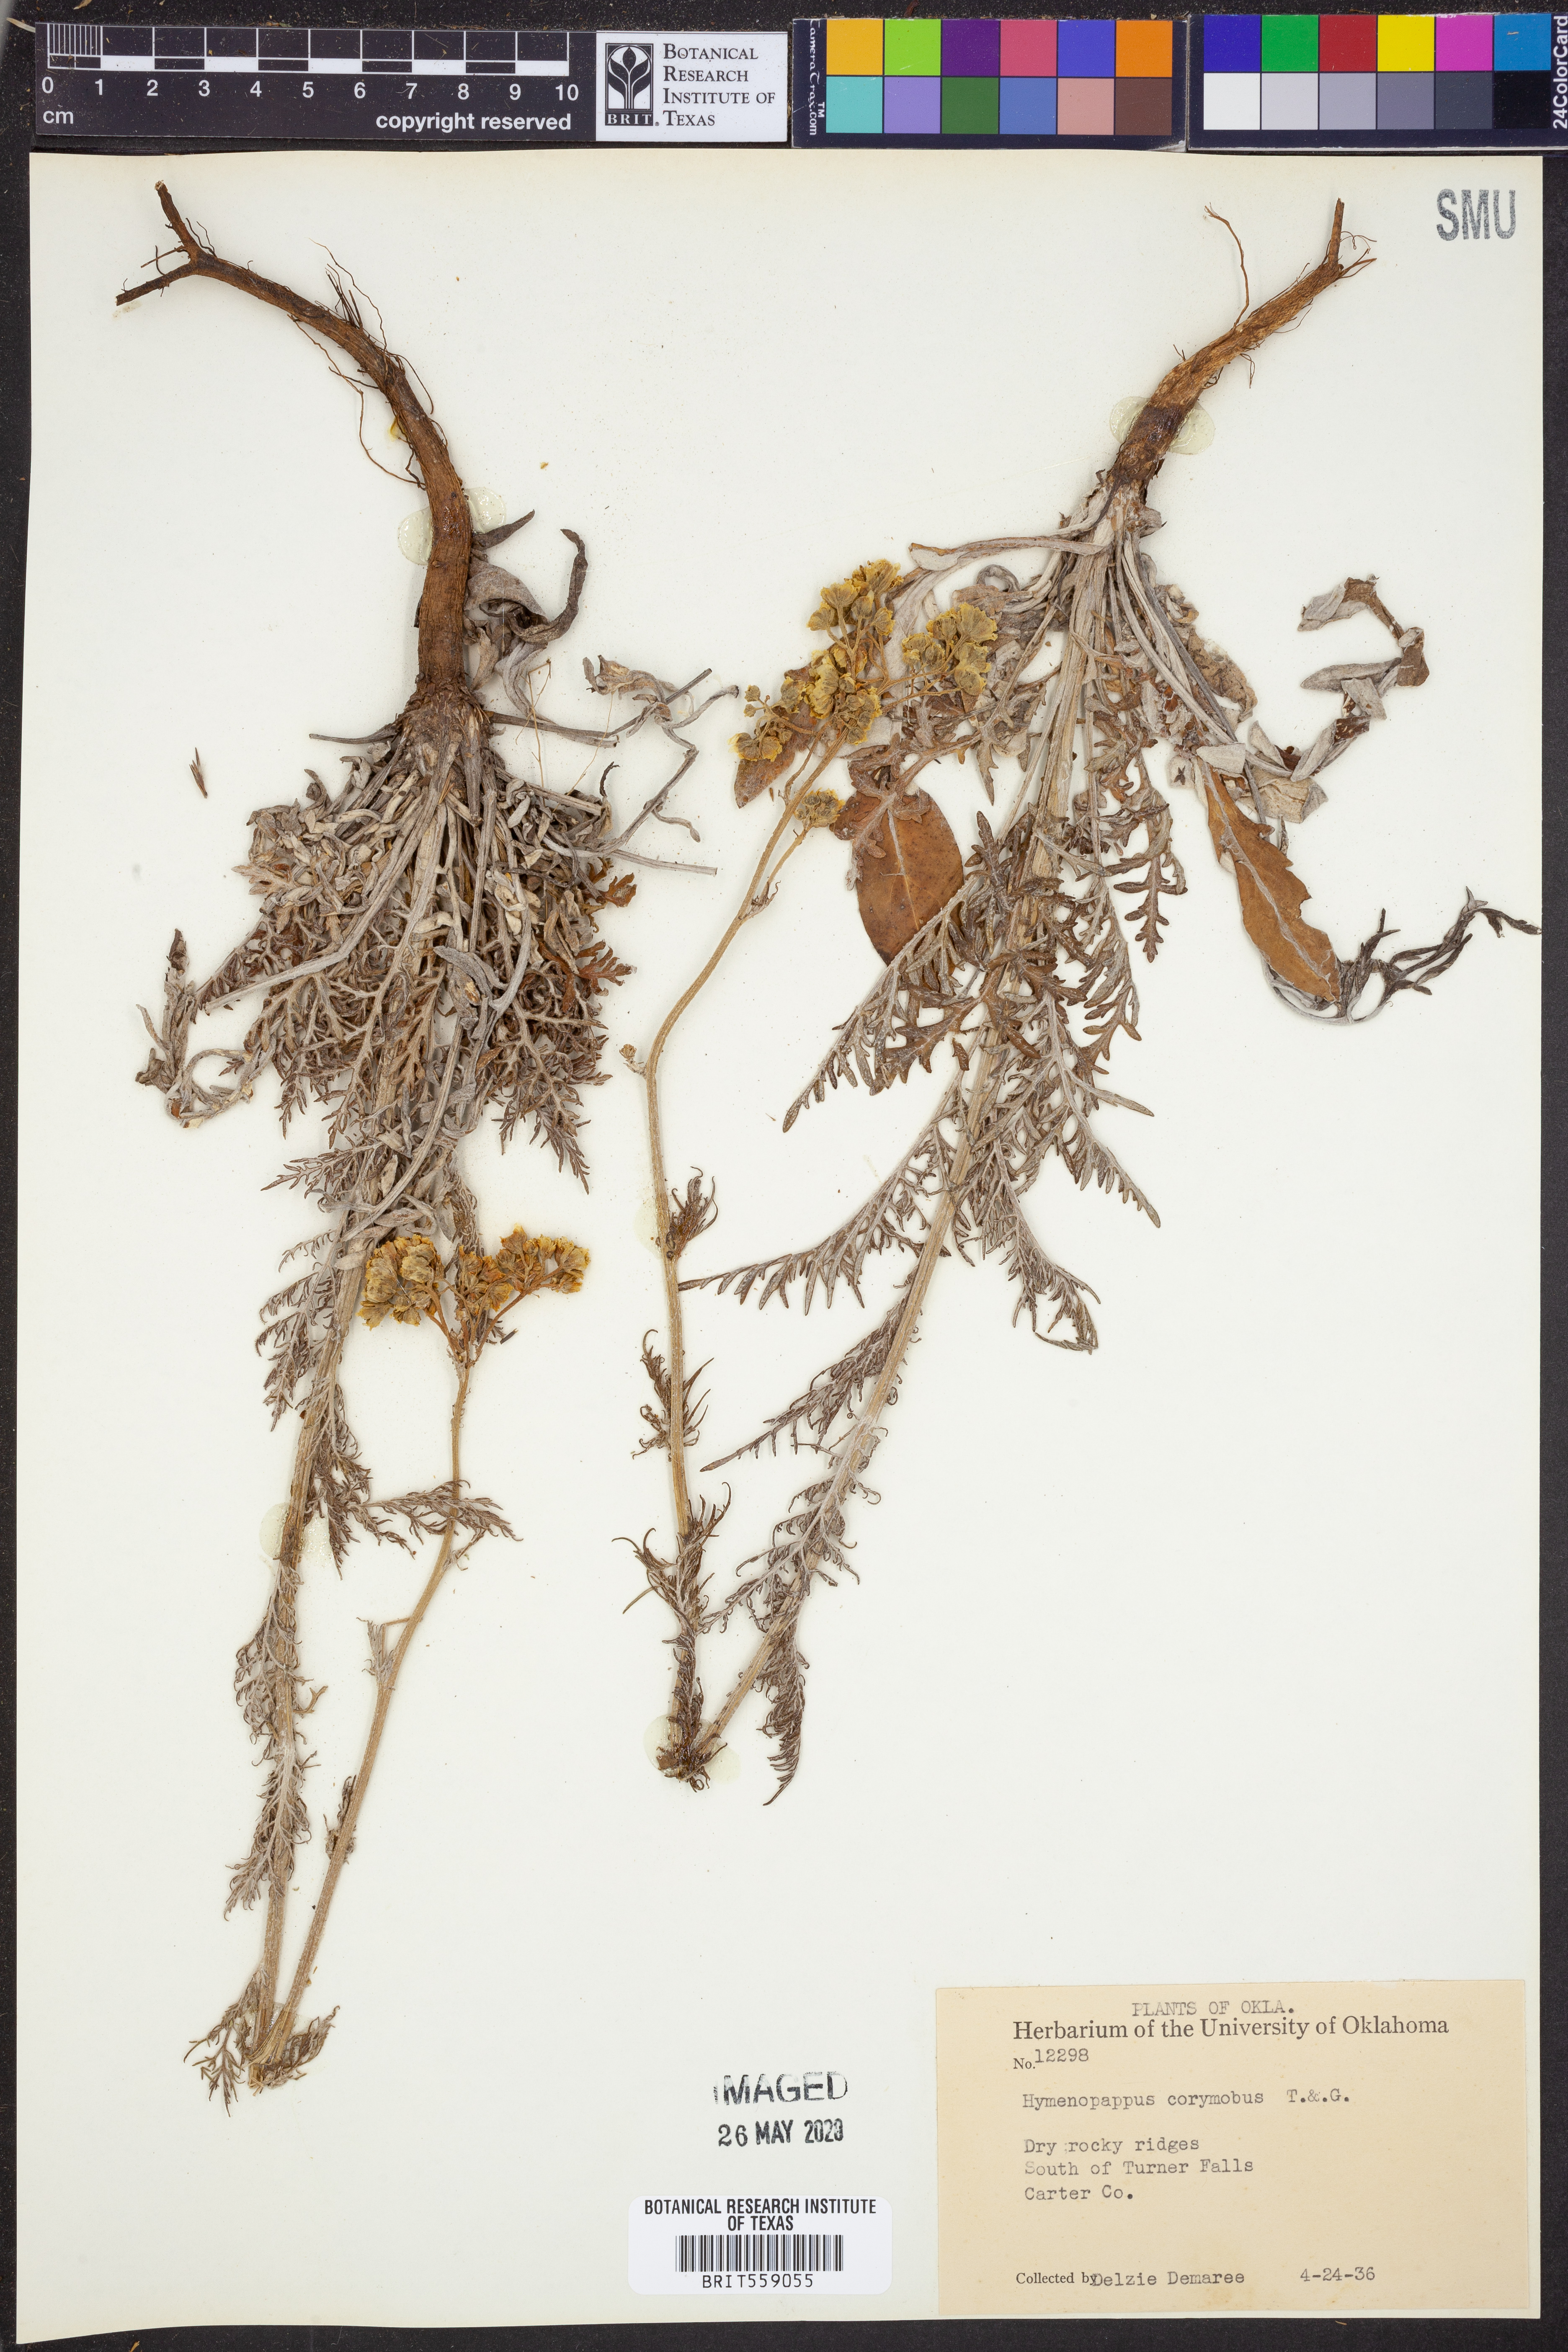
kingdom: Plantae
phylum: Tracheophyta
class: Magnoliopsida
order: Asterales
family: Asteraceae
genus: Hymenopappus
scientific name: Hymenopappus scabiosaeus
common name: Carolina woollywhite
